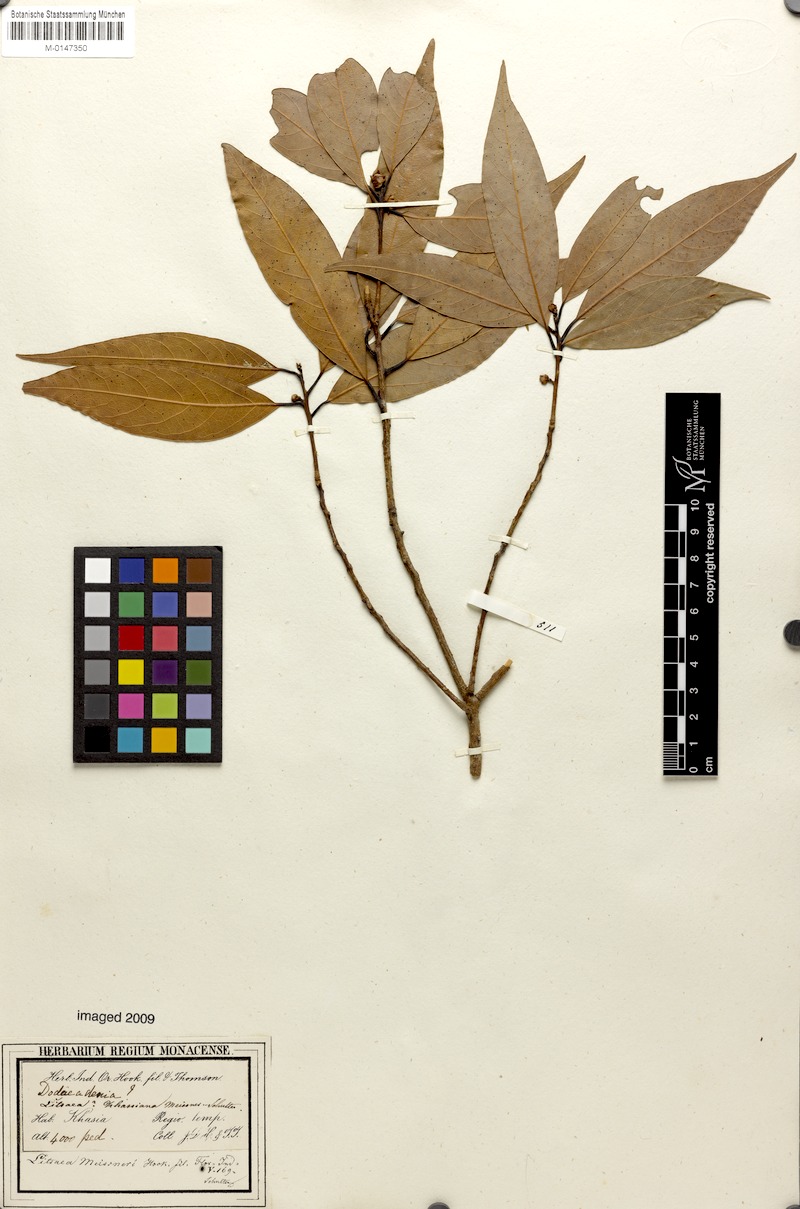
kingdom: Plantae
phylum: Tracheophyta
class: Magnoliopsida
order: Laurales
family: Lauraceae
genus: Litsea
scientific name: Litsea khasyana
